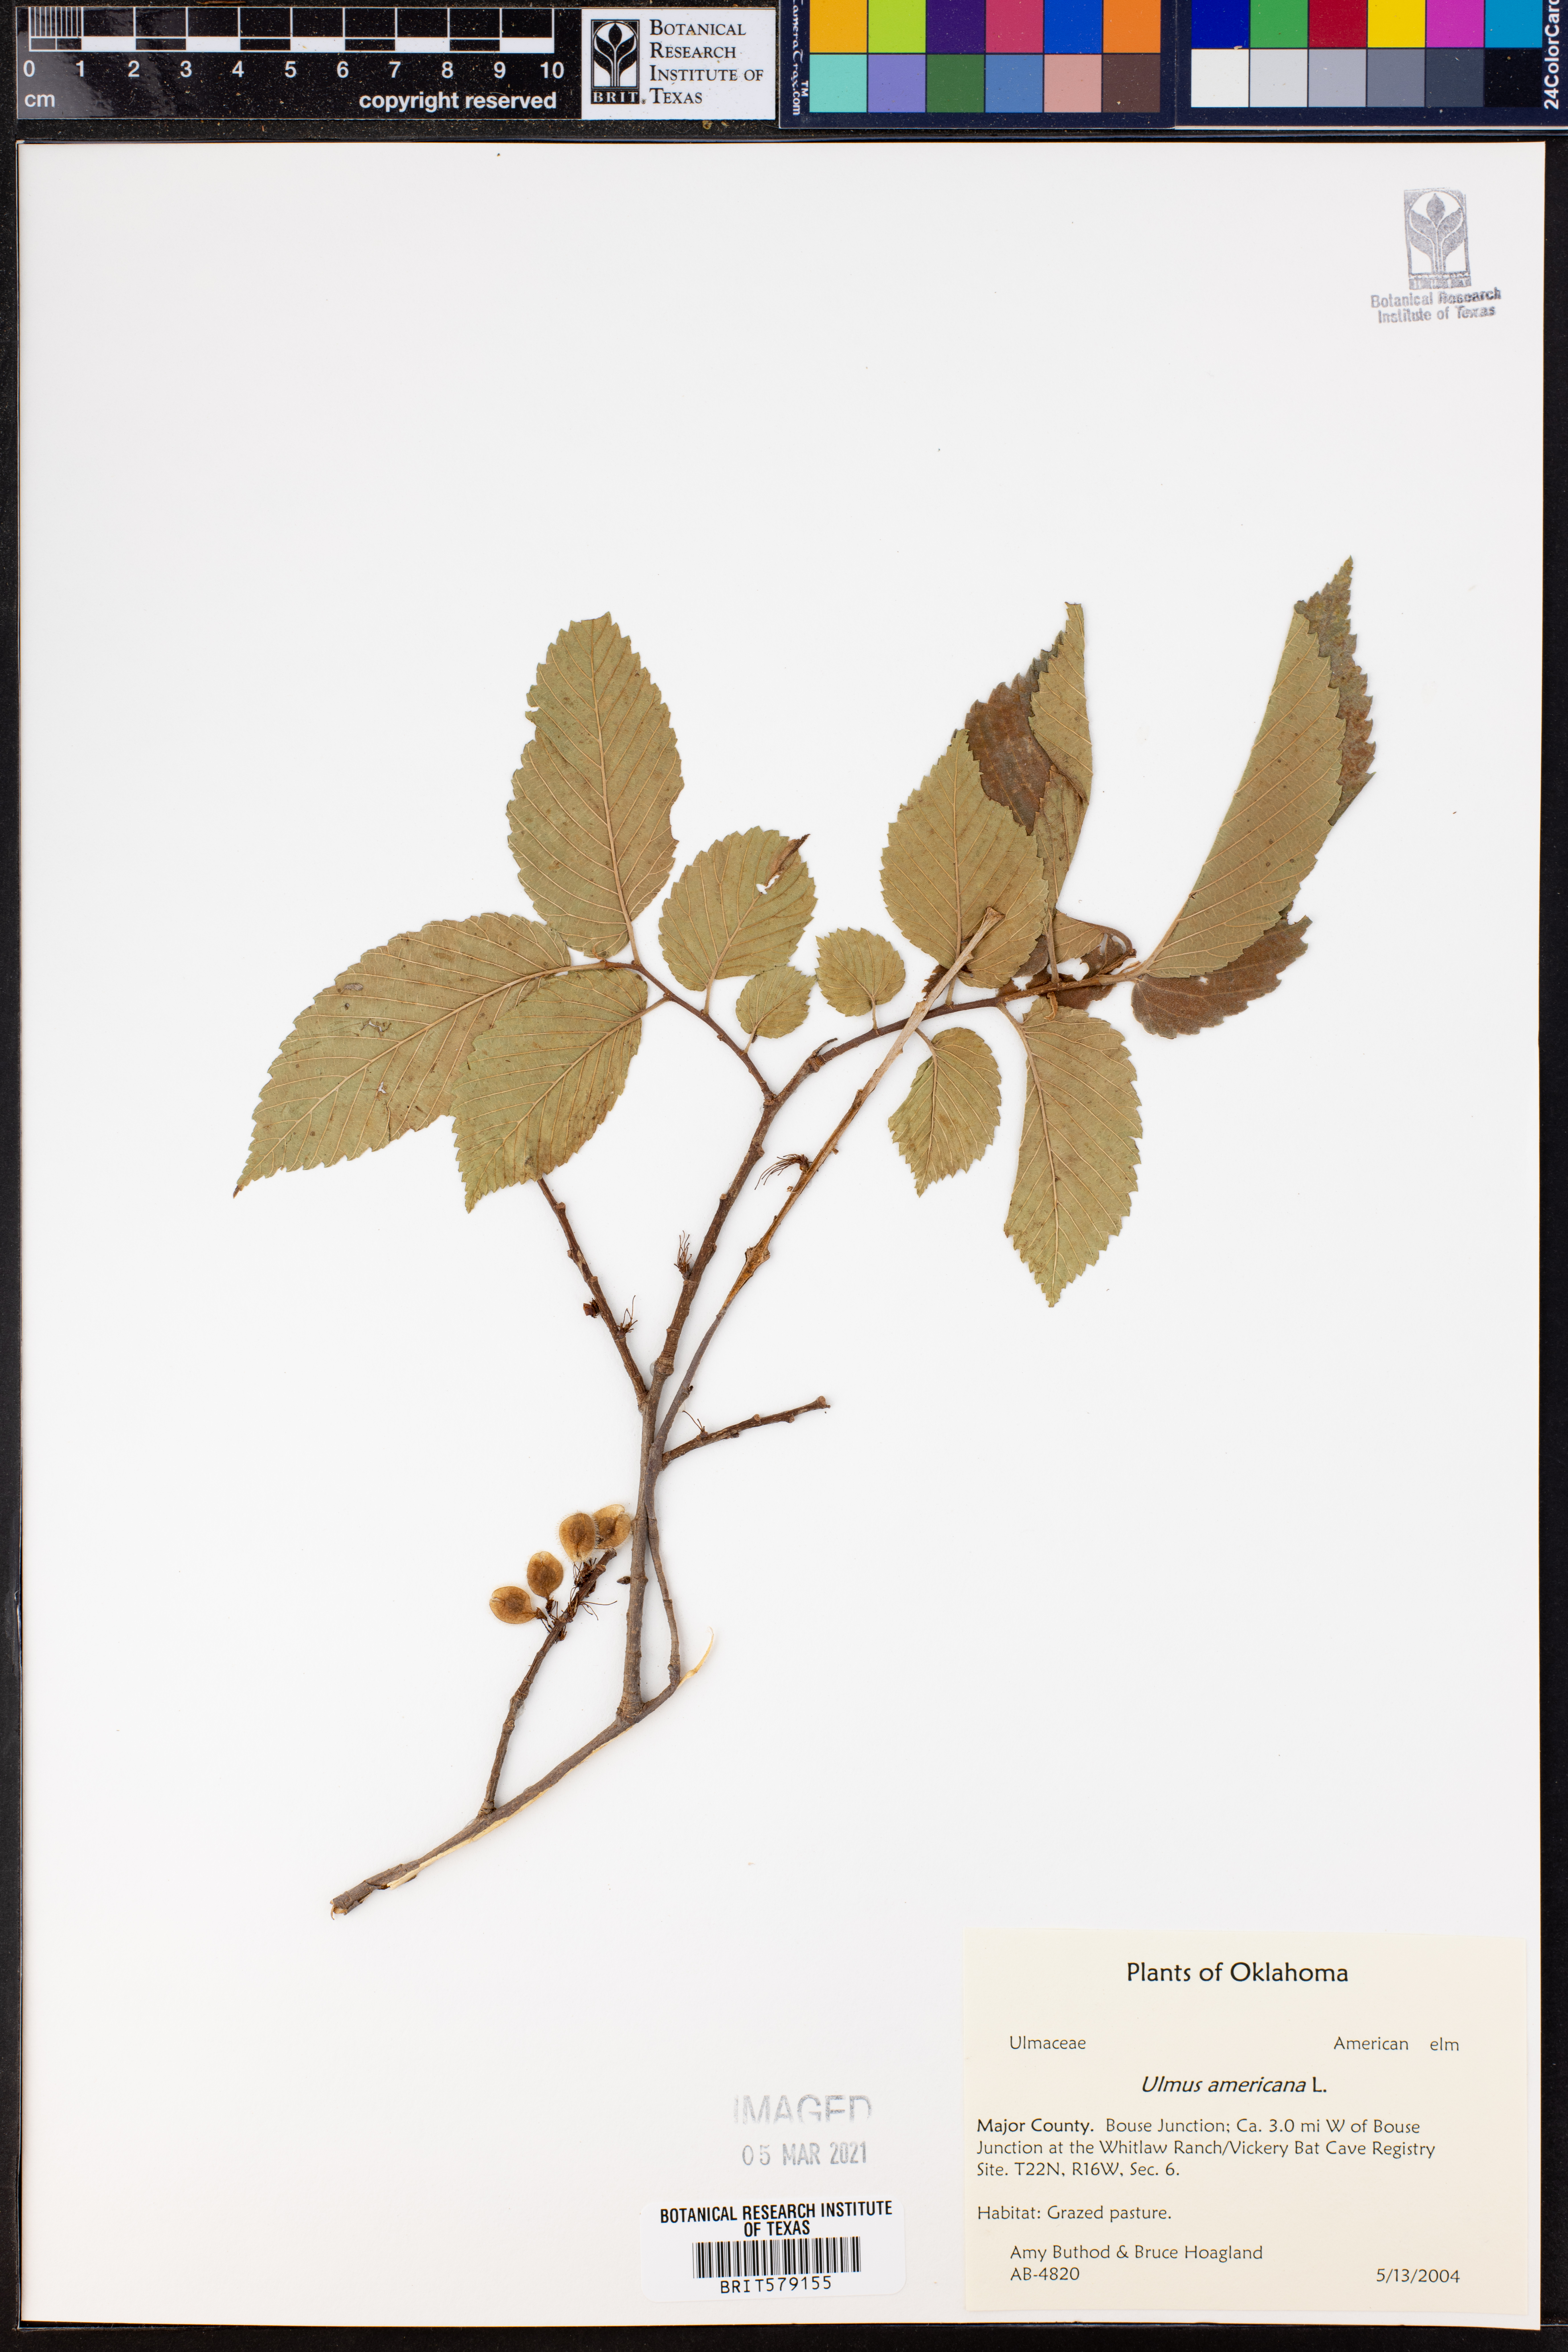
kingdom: Plantae
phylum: Tracheophyta
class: Magnoliopsida
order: Rosales
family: Ulmaceae
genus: Ulmus
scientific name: Ulmus americana
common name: American elm
